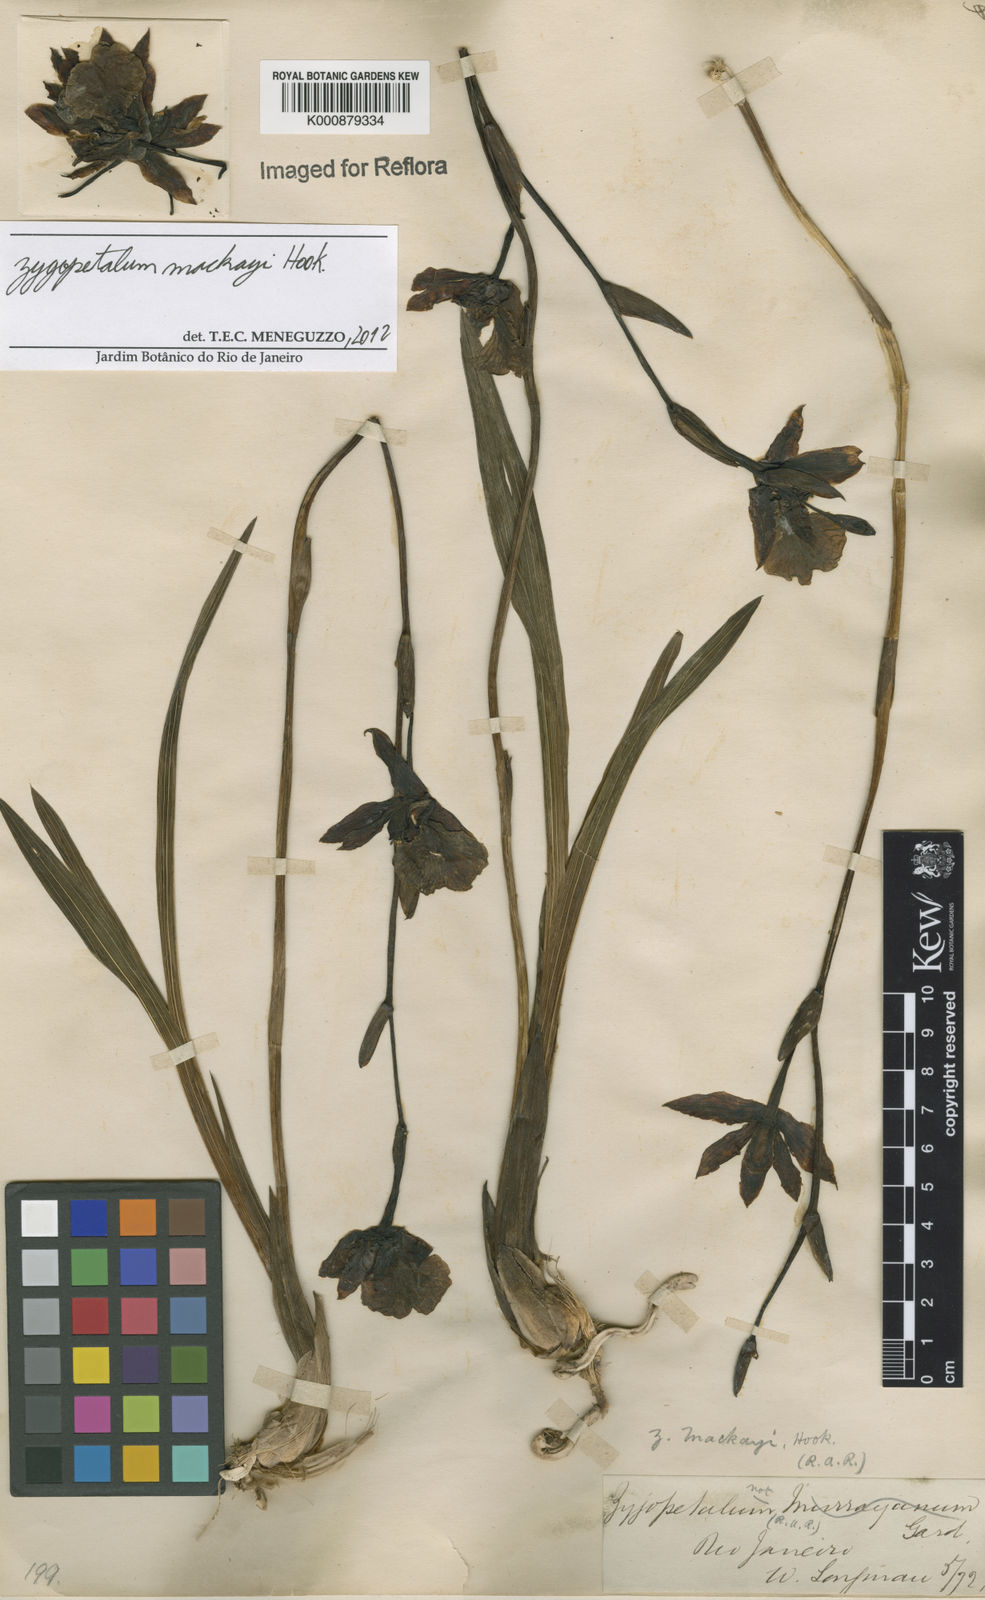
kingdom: Plantae
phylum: Tracheophyta
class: Liliopsida
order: Asparagales
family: Orchidaceae
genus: Zygopetalum
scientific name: Zygopetalum maculatum
